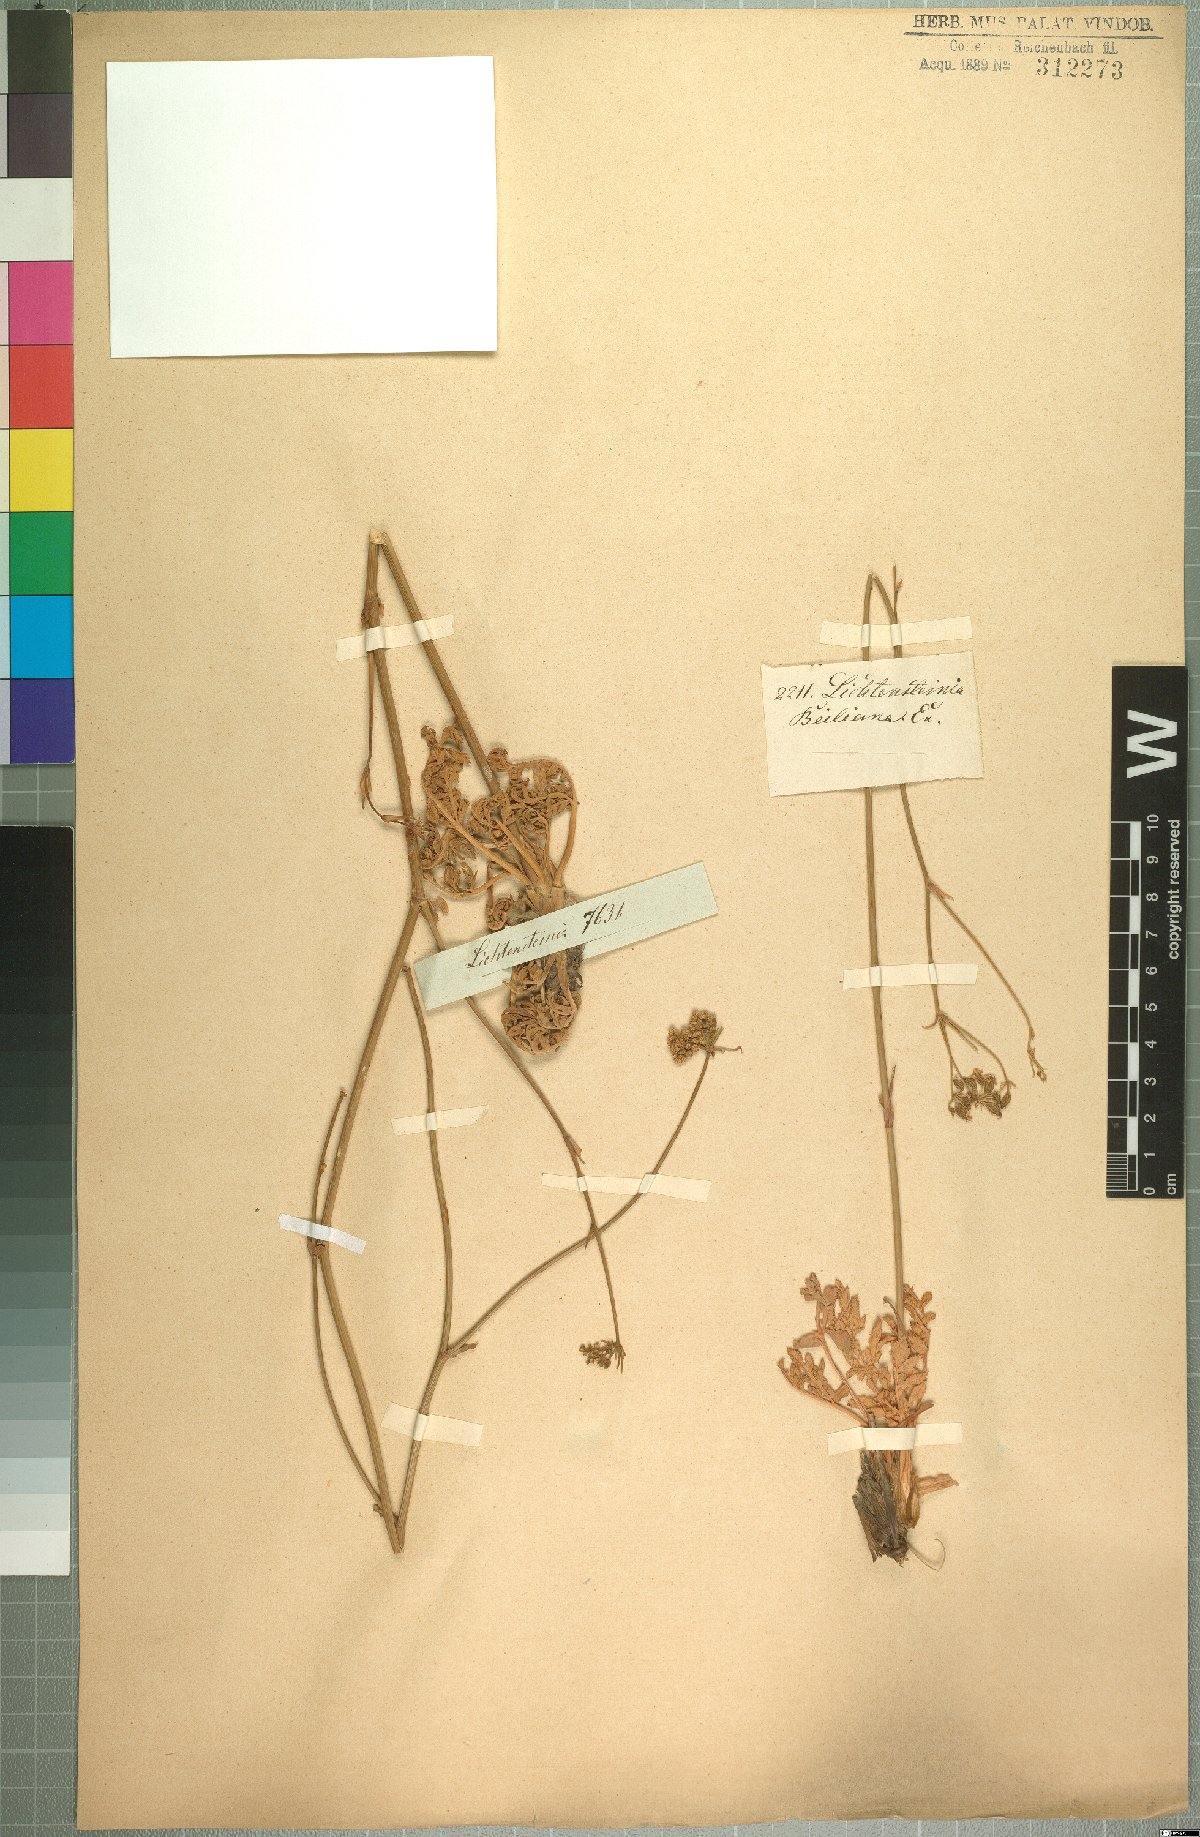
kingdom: Plantae
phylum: Tracheophyta
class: Magnoliopsida
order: Apiales
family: Apiaceae
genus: Lichtensteinia
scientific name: Lichtensteinia obscura
